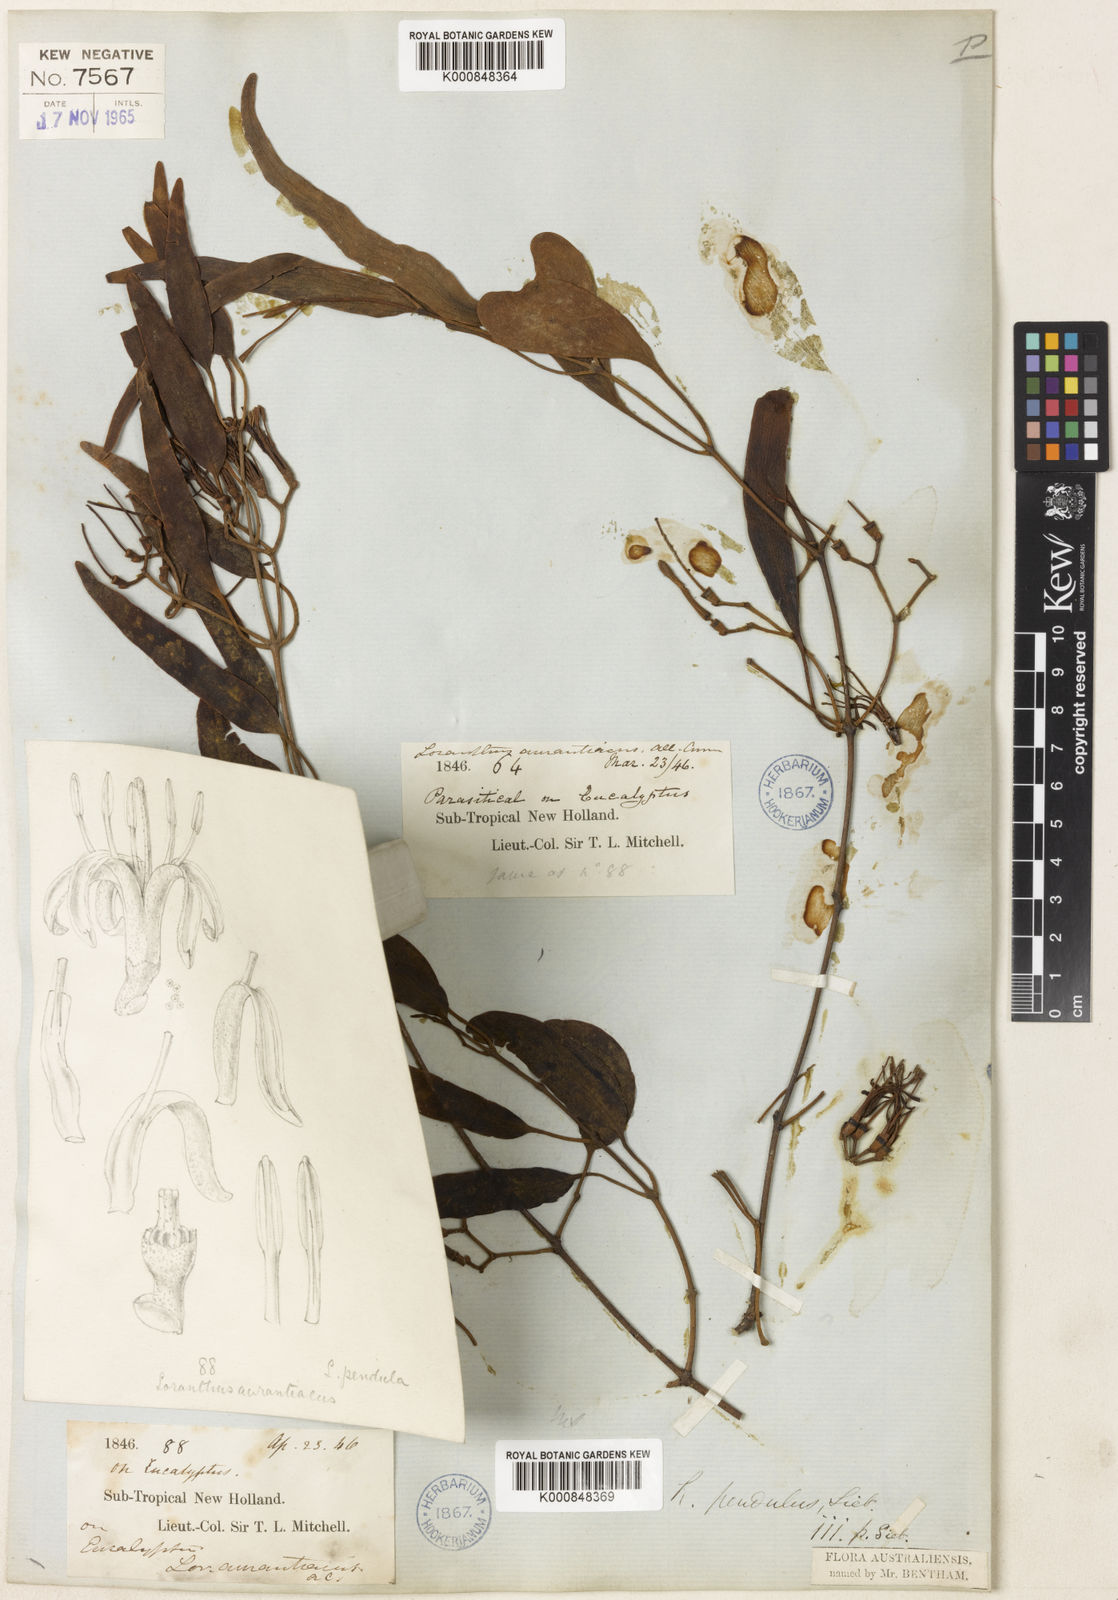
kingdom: Plantae
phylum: Tracheophyta
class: Magnoliopsida
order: Santalales
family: Loranthaceae
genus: Amyema
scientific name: Amyema miquelii
